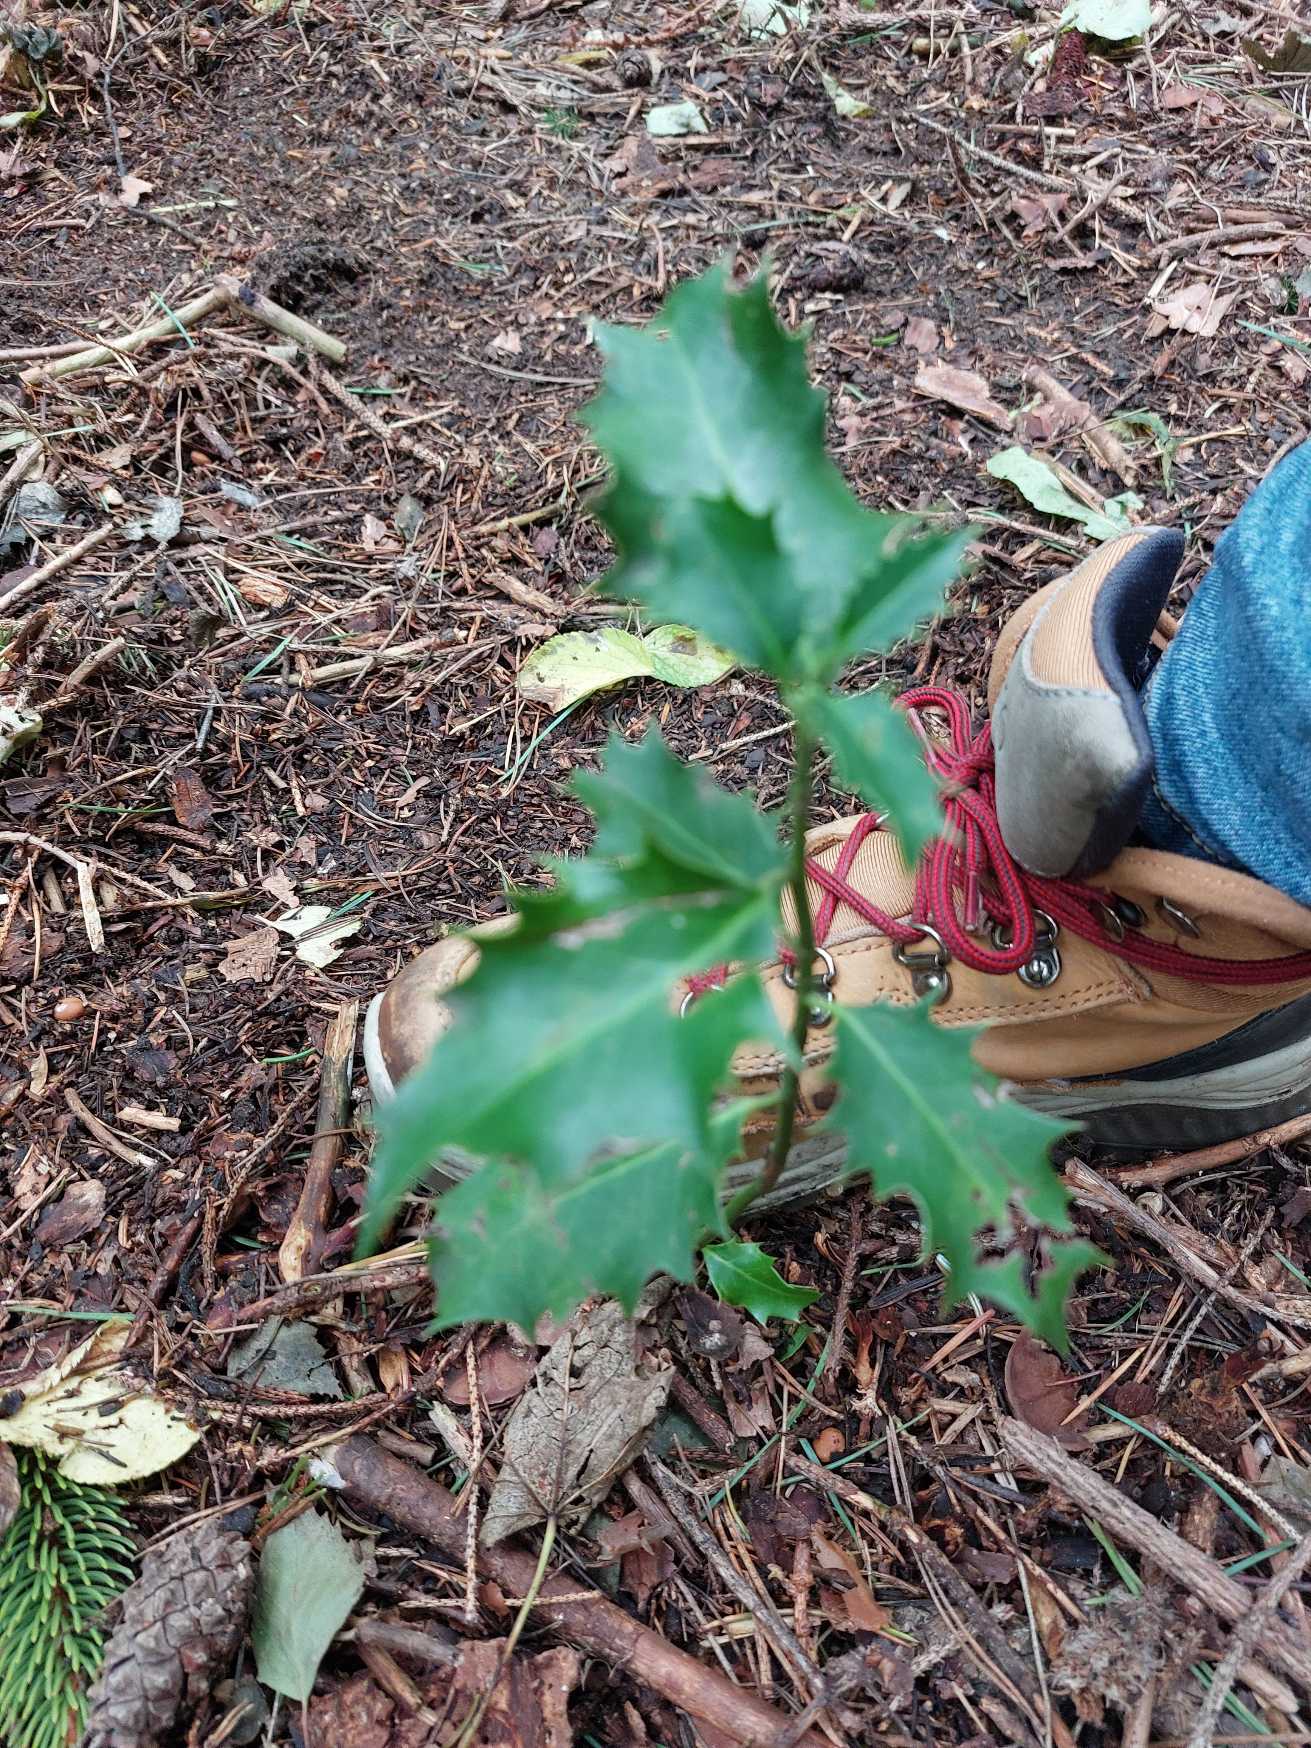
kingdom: Plantae
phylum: Tracheophyta
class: Magnoliopsida
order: Aquifoliales
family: Aquifoliaceae
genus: Ilex
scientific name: Ilex aquifolium
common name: Kristtorn
